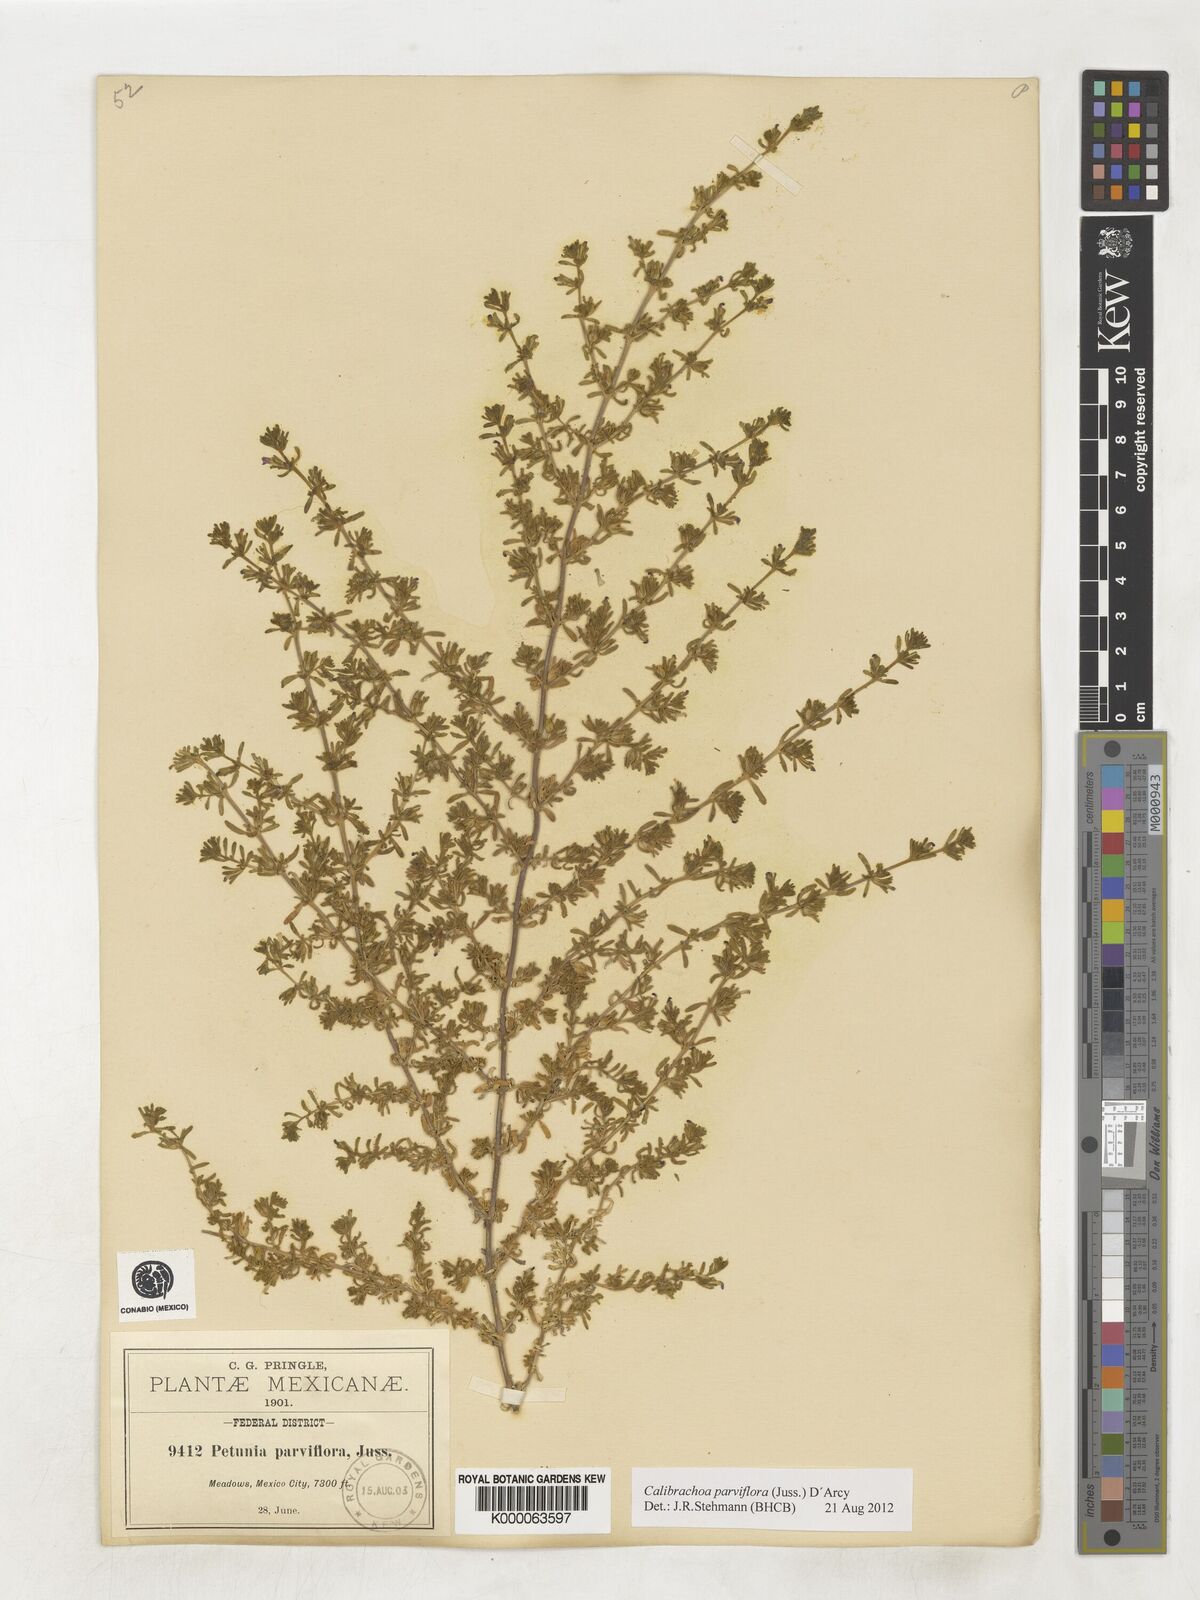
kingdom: Plantae
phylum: Tracheophyta
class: Magnoliopsida
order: Solanales
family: Solanaceae
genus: Calibrachoa
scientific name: Calibrachoa parviflora
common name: Seaside petunia
